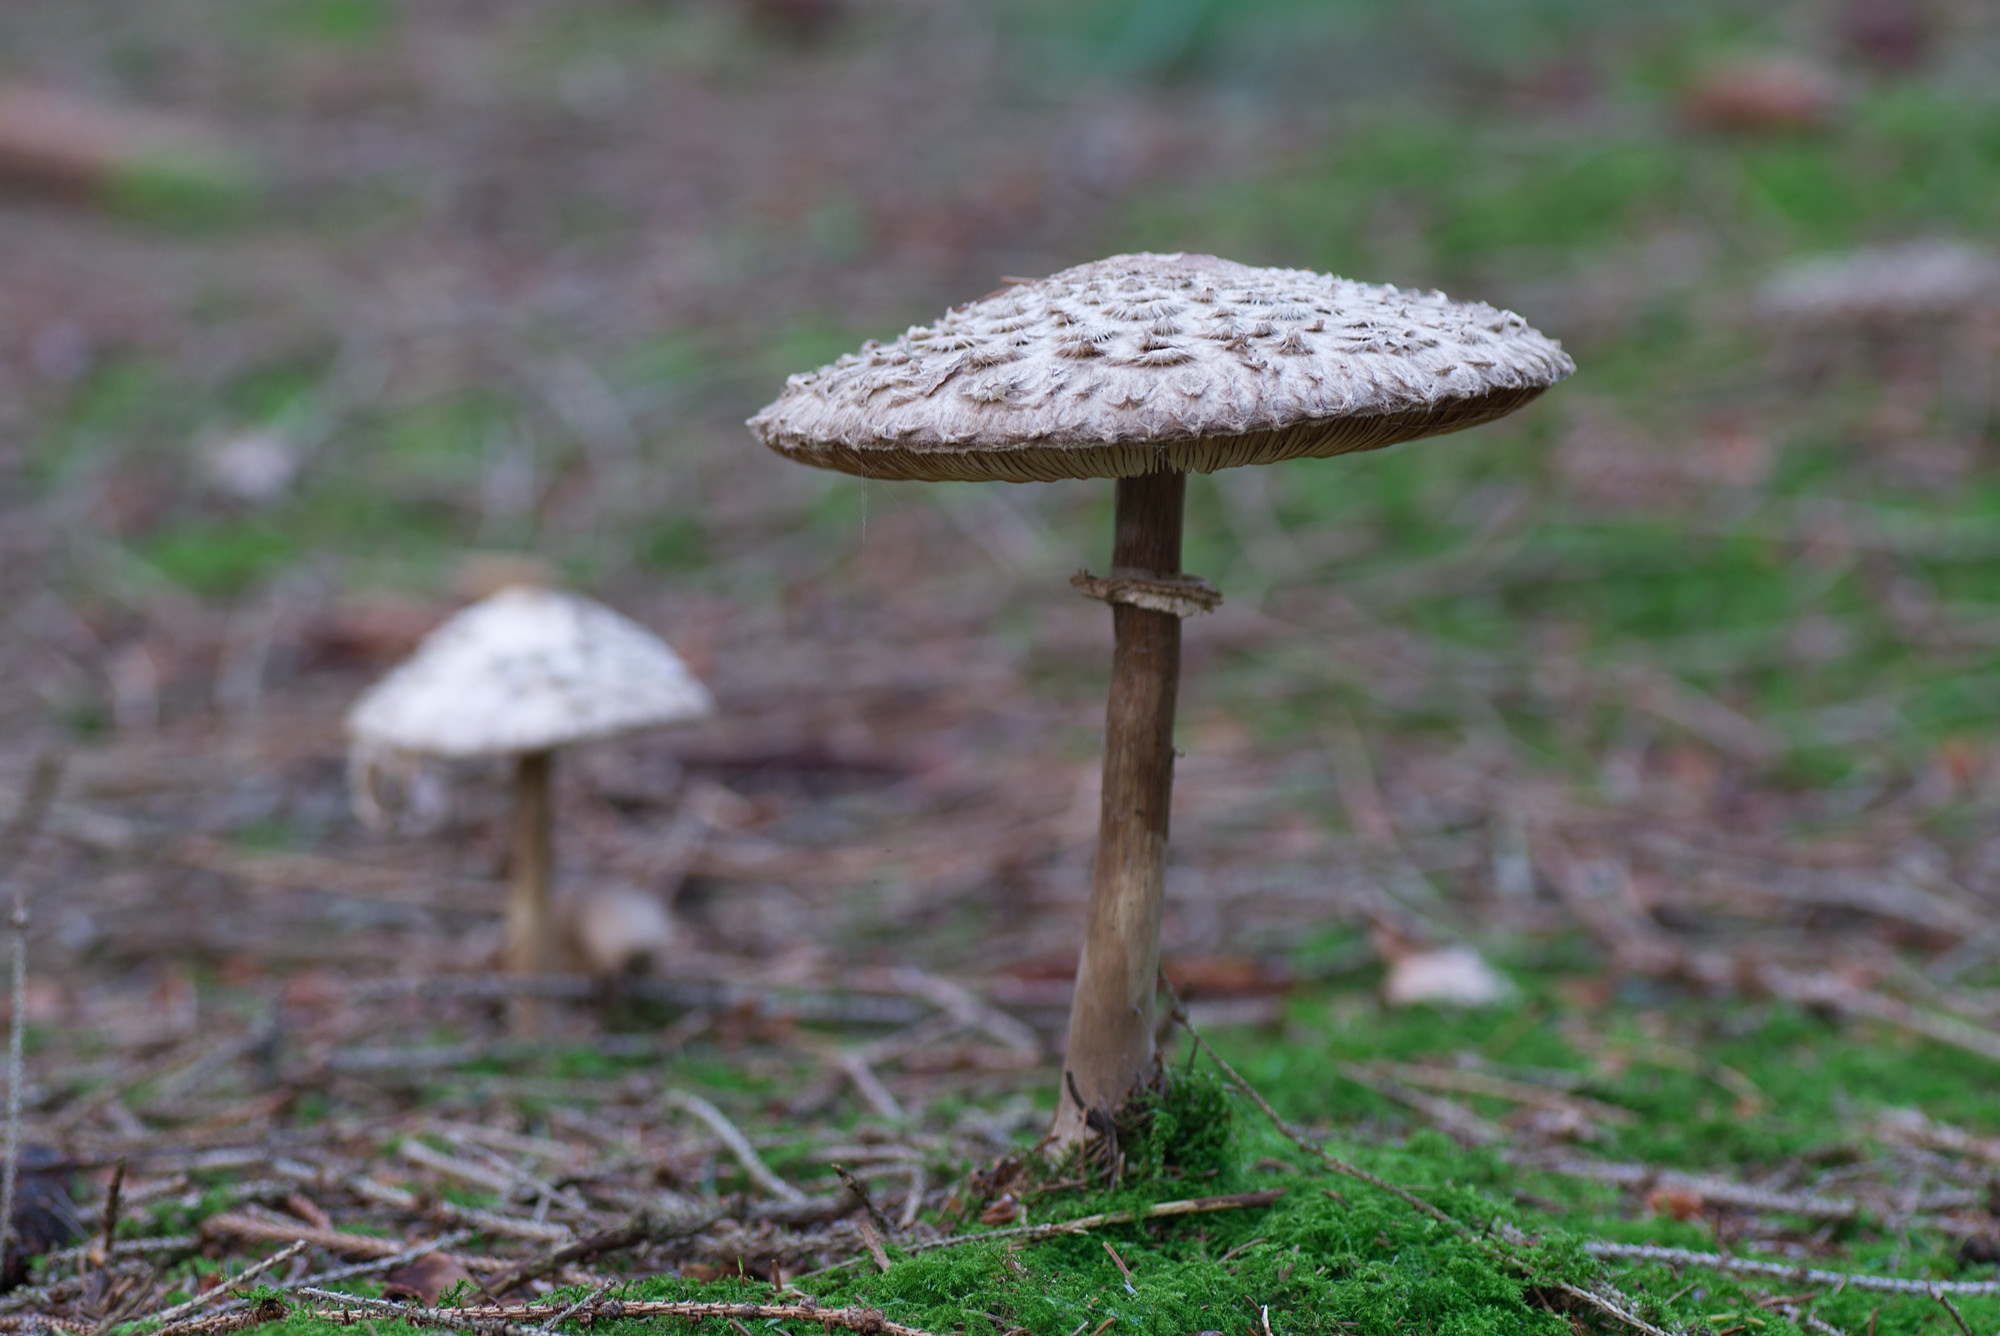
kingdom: Fungi
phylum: Basidiomycota
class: Agaricomycetes
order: Agaricales
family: Agaricaceae
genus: Chlorophyllum
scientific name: Chlorophyllum olivieri
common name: almindelig rabarberhat
